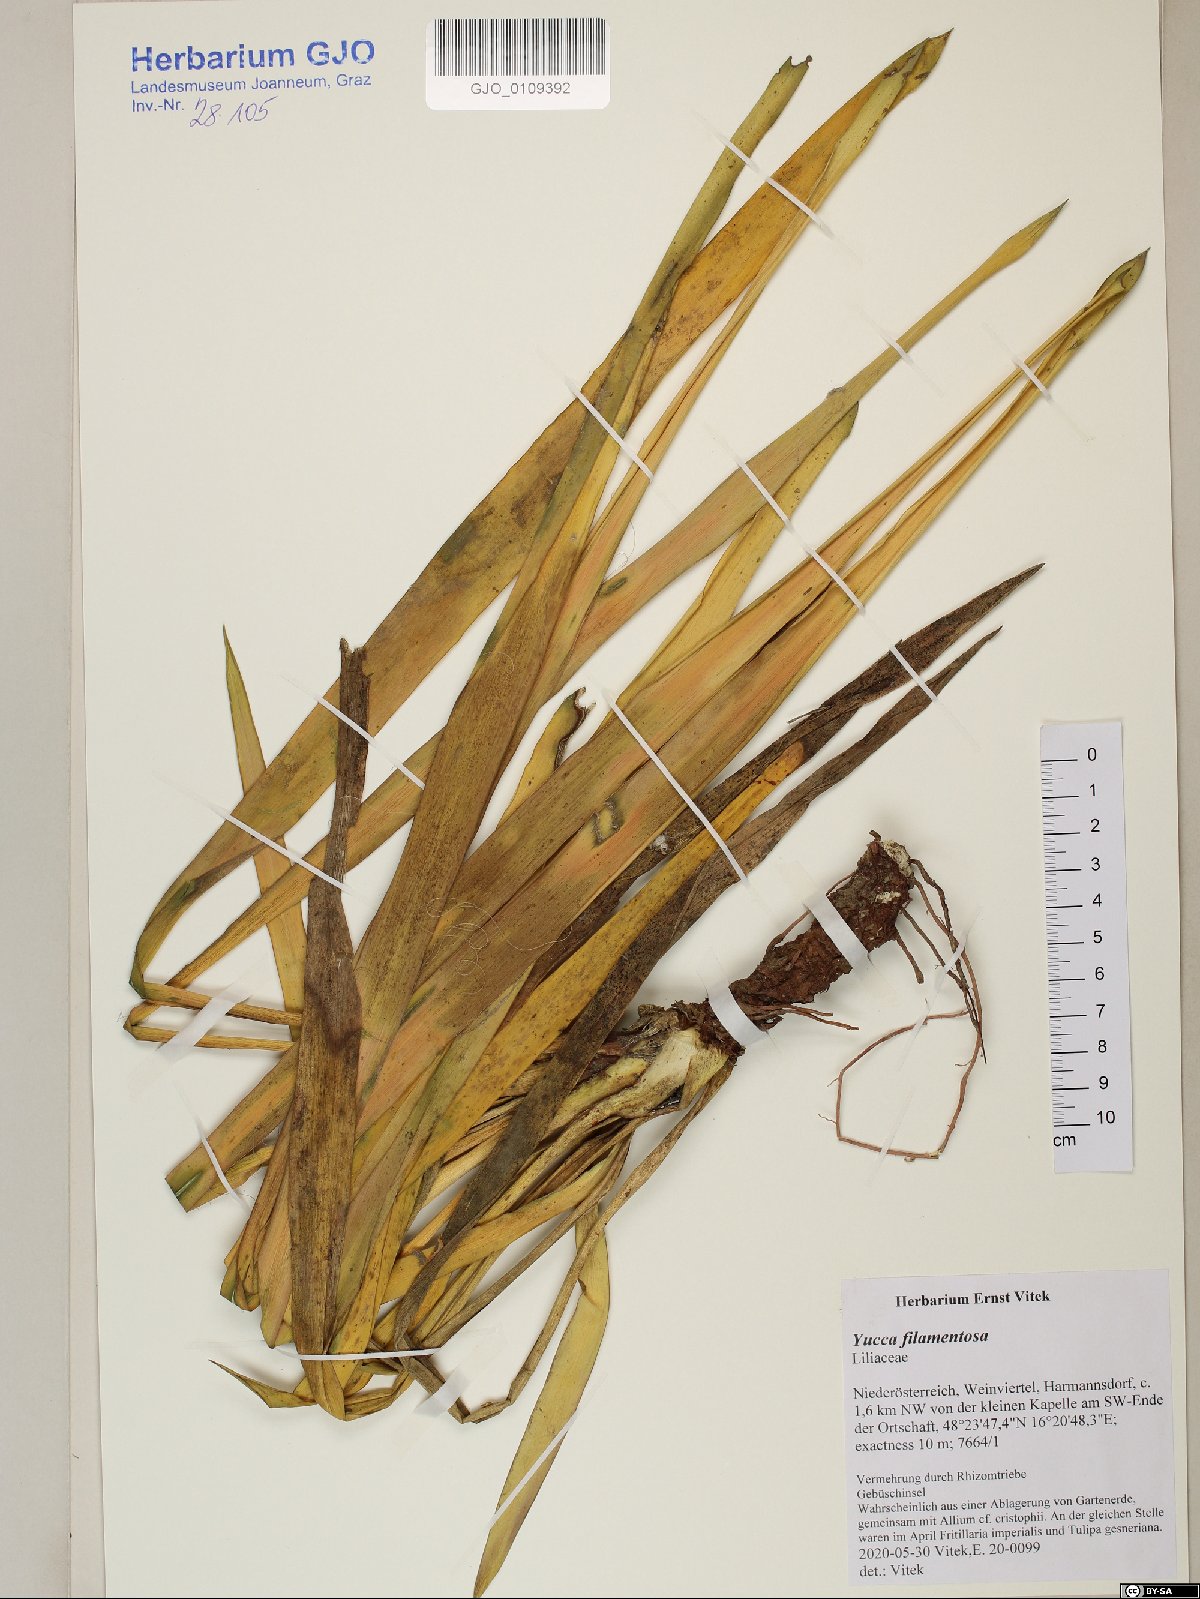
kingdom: Plantae
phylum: Tracheophyta
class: Liliopsida
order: Asparagales
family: Asparagaceae
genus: Yucca
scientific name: Yucca filamentosa
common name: Adam's-needle
